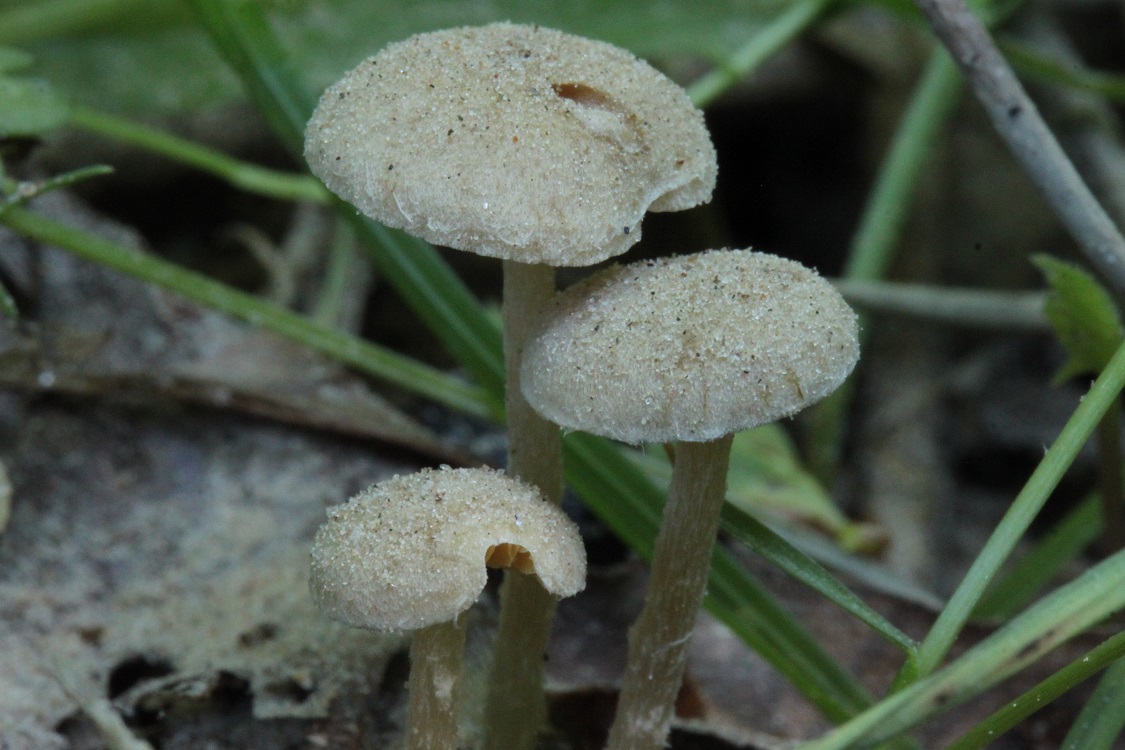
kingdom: Fungi
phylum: Basidiomycota
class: Agaricomycetes
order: Agaricales
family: Tubariaceae
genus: Tubaria
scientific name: Tubaria dispersa
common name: tjørne-fnughat
